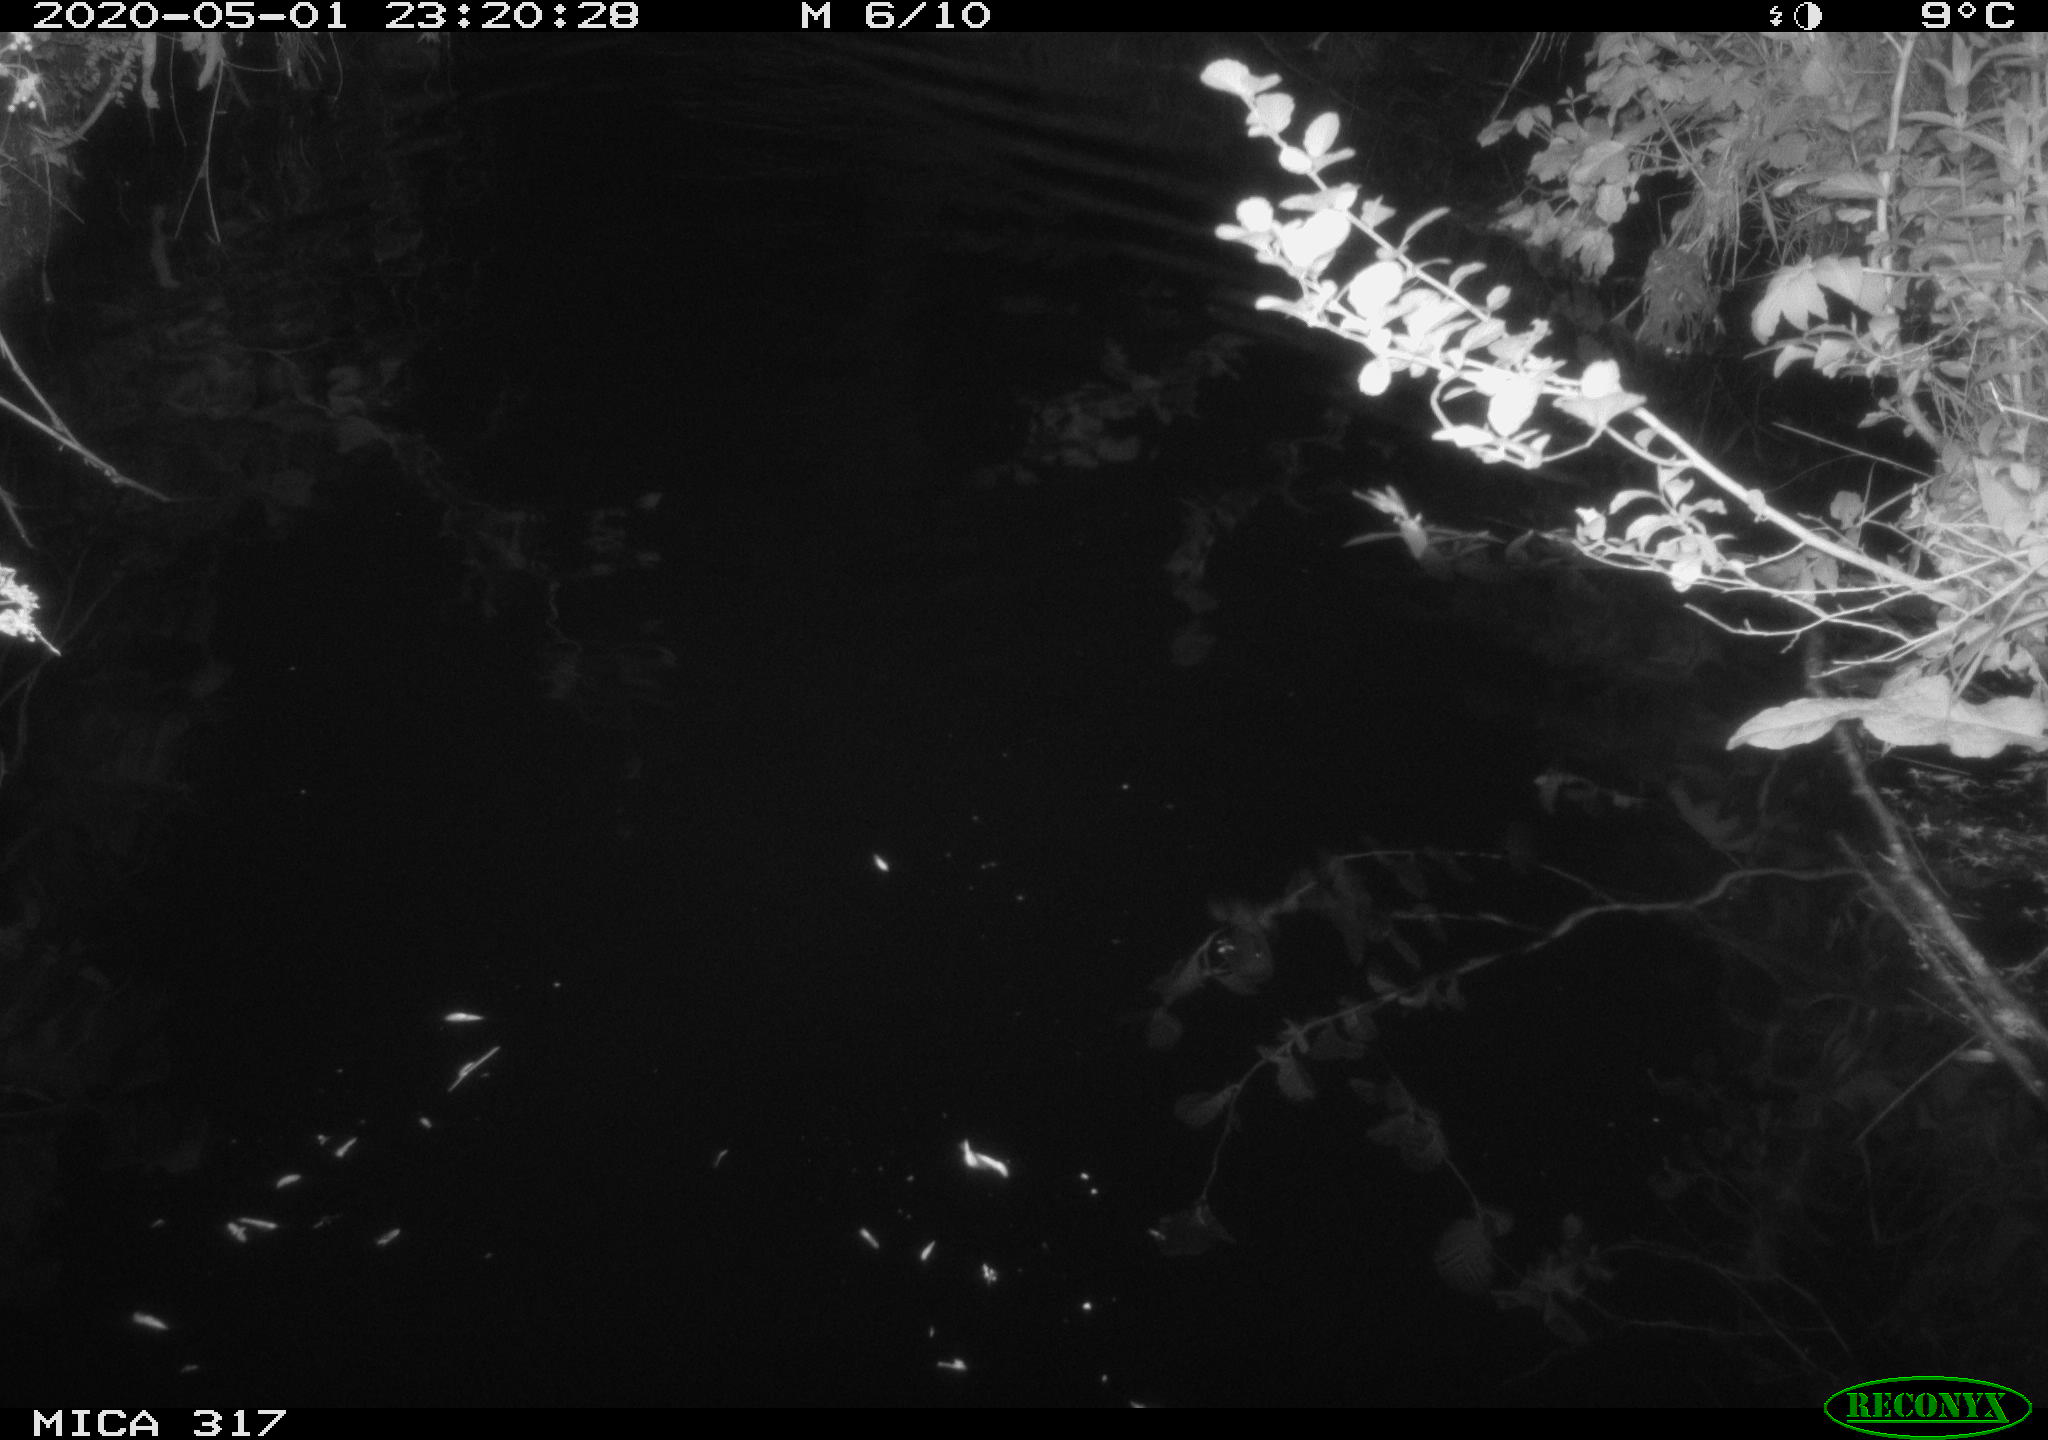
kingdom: Animalia
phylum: Chordata
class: Aves
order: Anseriformes
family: Anatidae
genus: Anas
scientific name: Anas platyrhynchos
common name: Mallard
